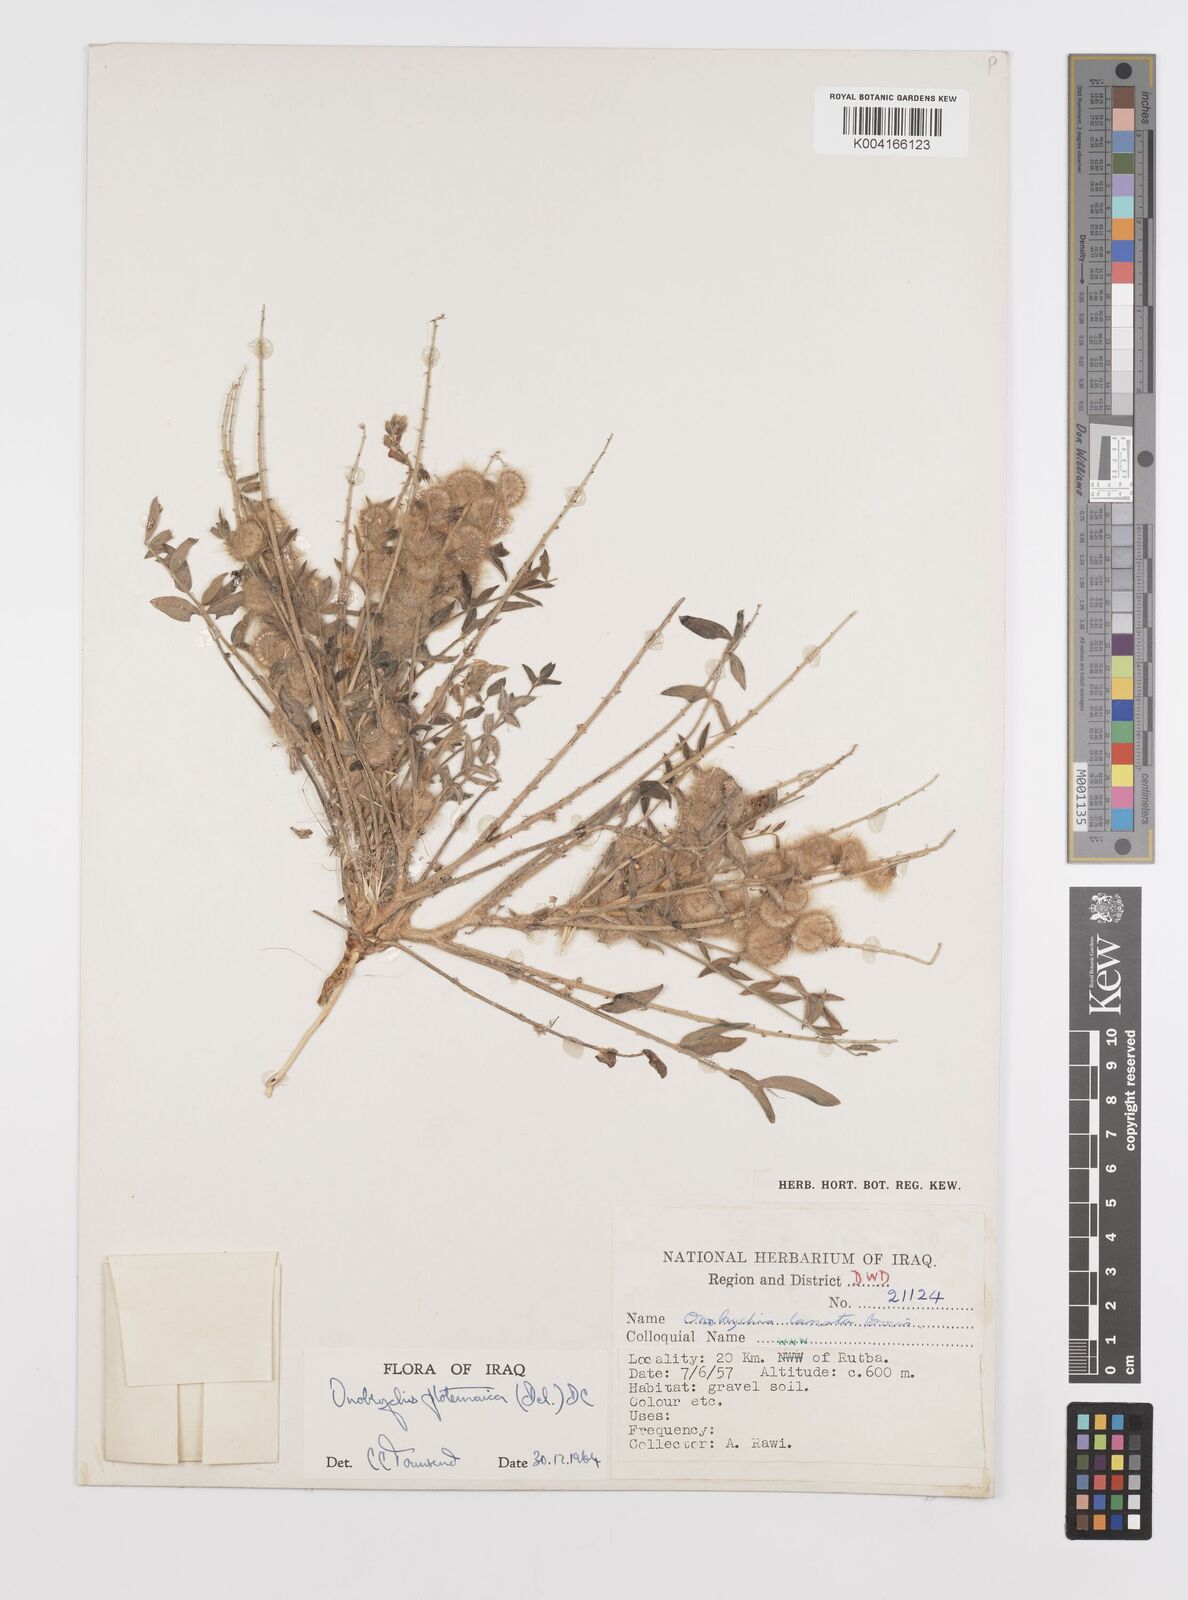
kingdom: Plantae
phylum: Tracheophyta
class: Magnoliopsida
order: Fabales
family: Fabaceae
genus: Onobrychis
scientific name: Onobrychis ptolemaica
